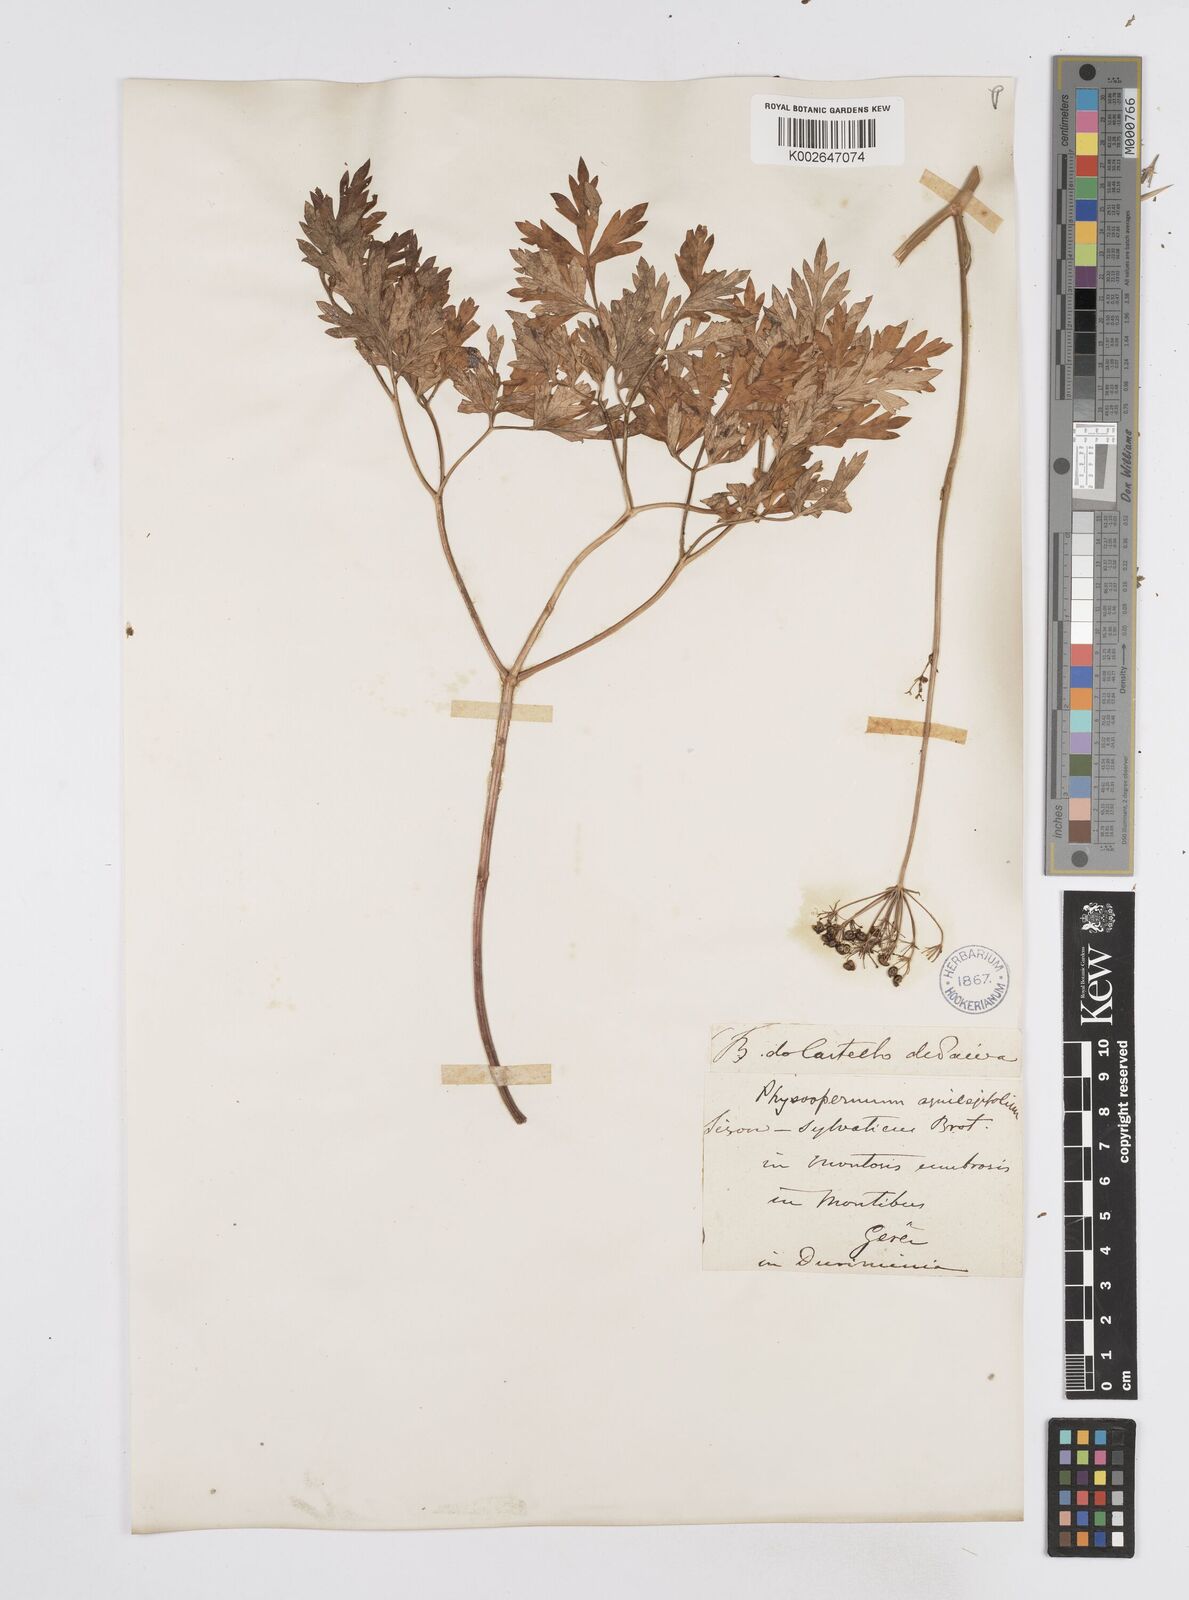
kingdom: Plantae
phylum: Tracheophyta
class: Magnoliopsida
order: Apiales
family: Apiaceae
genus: Physospermum
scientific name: Physospermum cornubiense
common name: Bladderseed
